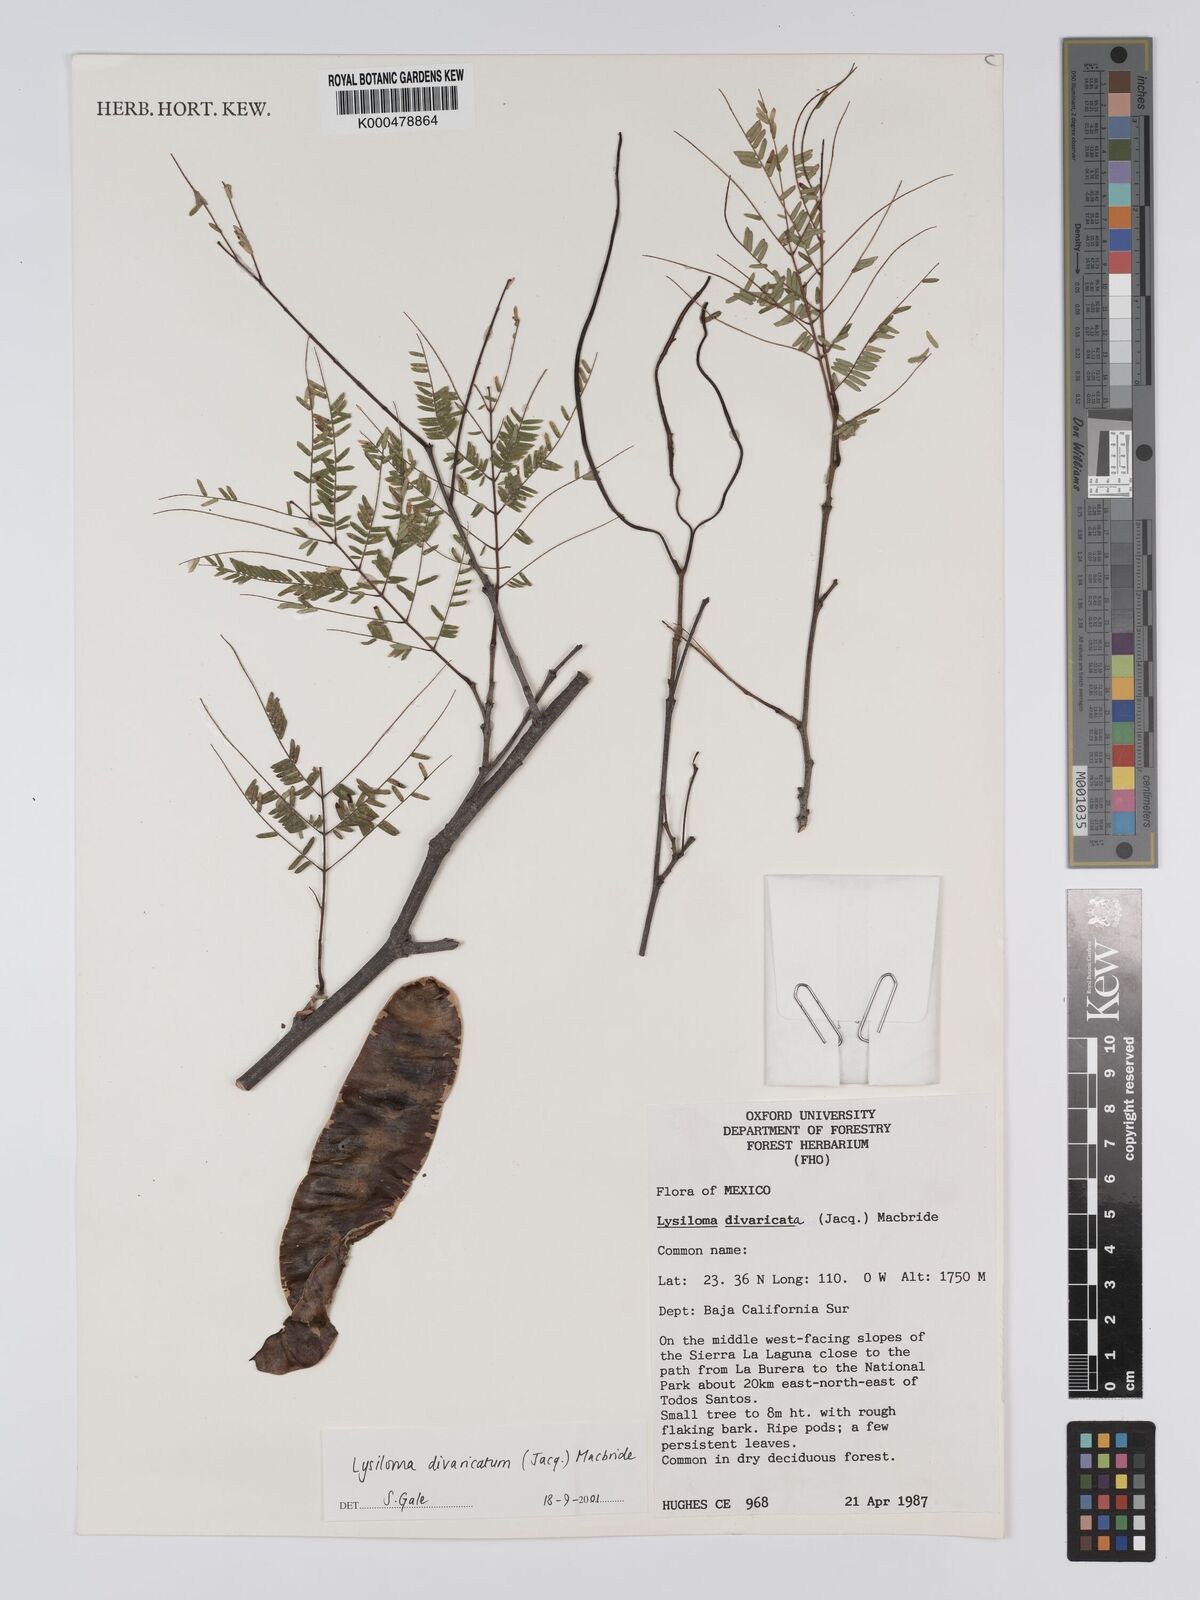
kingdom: Plantae
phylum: Tracheophyta
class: Magnoliopsida
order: Fabales
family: Fabaceae
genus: Lysiloma
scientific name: Lysiloma divaricatum
